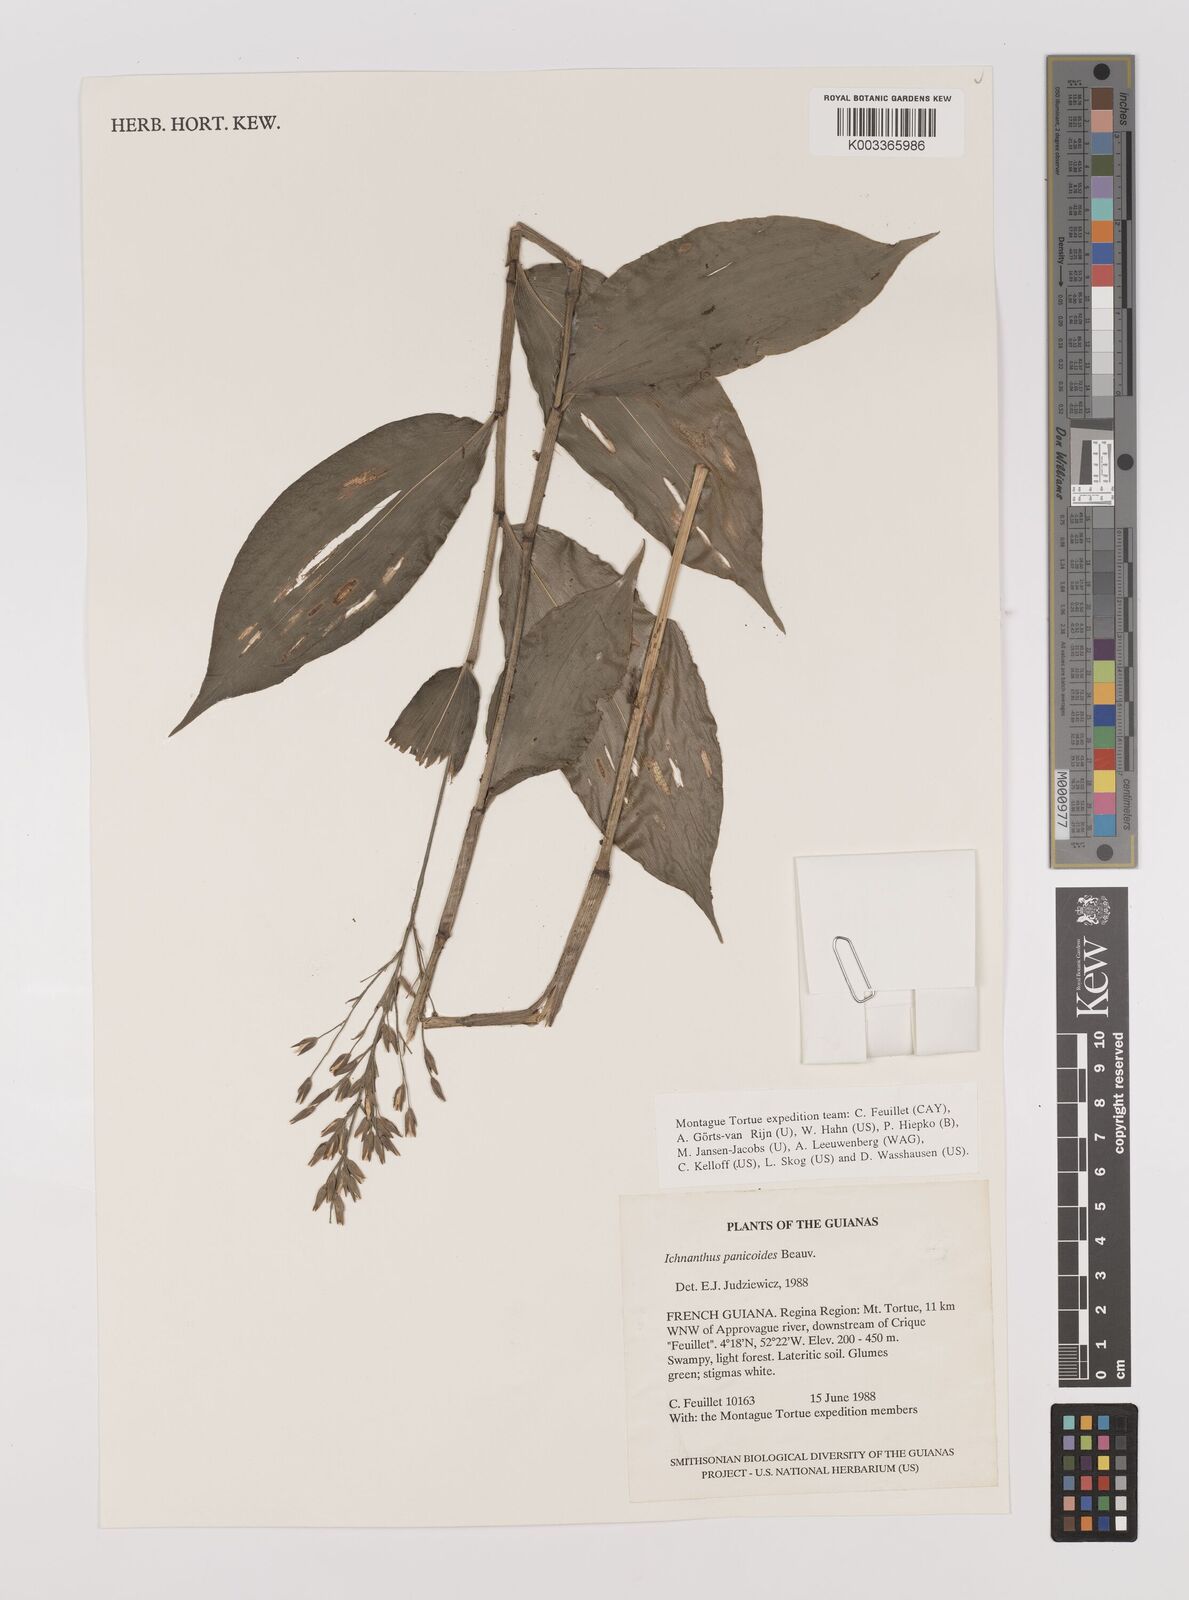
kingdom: Plantae
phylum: Tracheophyta
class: Liliopsida
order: Poales
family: Poaceae
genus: Ichnanthus
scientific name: Ichnanthus panicoides
